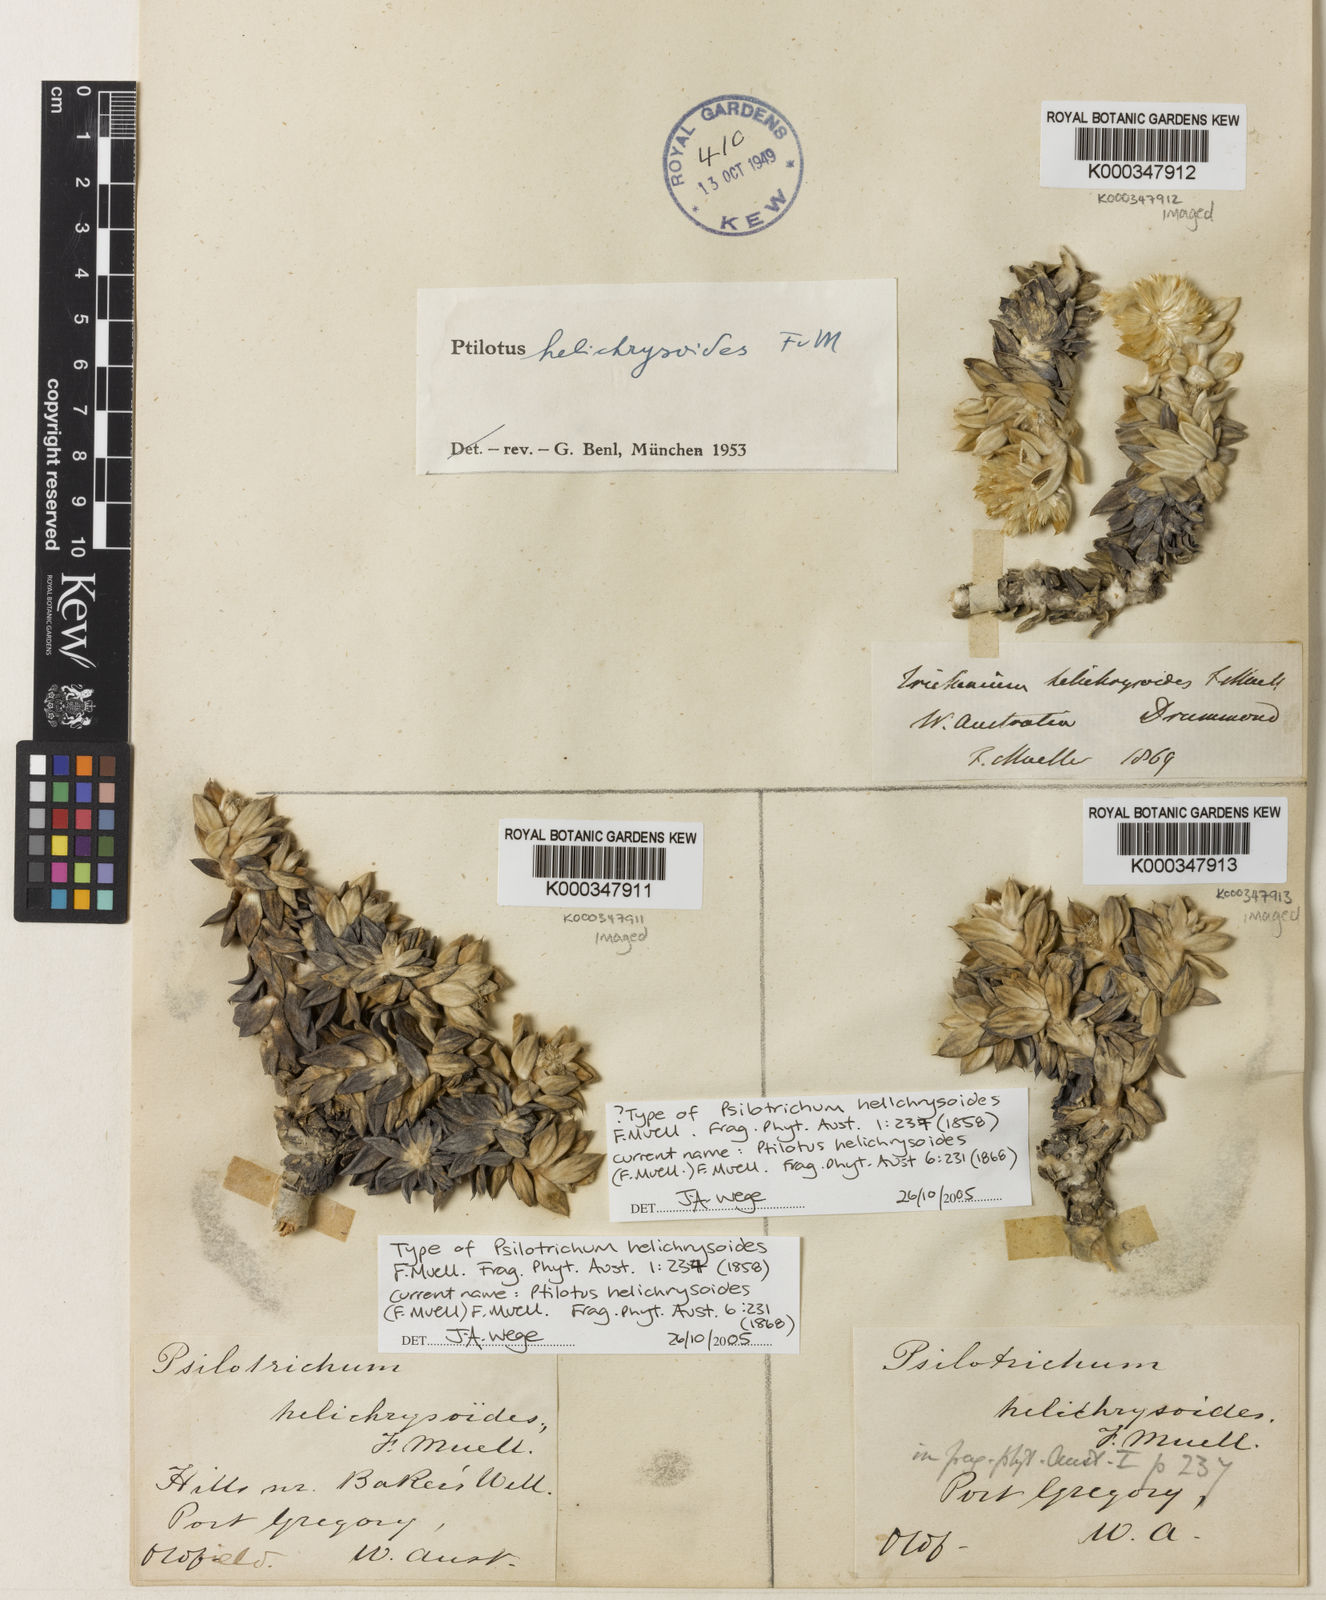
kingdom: Plantae
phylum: Tracheophyta
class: Magnoliopsida
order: Caryophyllales
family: Amaranthaceae
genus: Ptilotus
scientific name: Ptilotus helichrysoides
